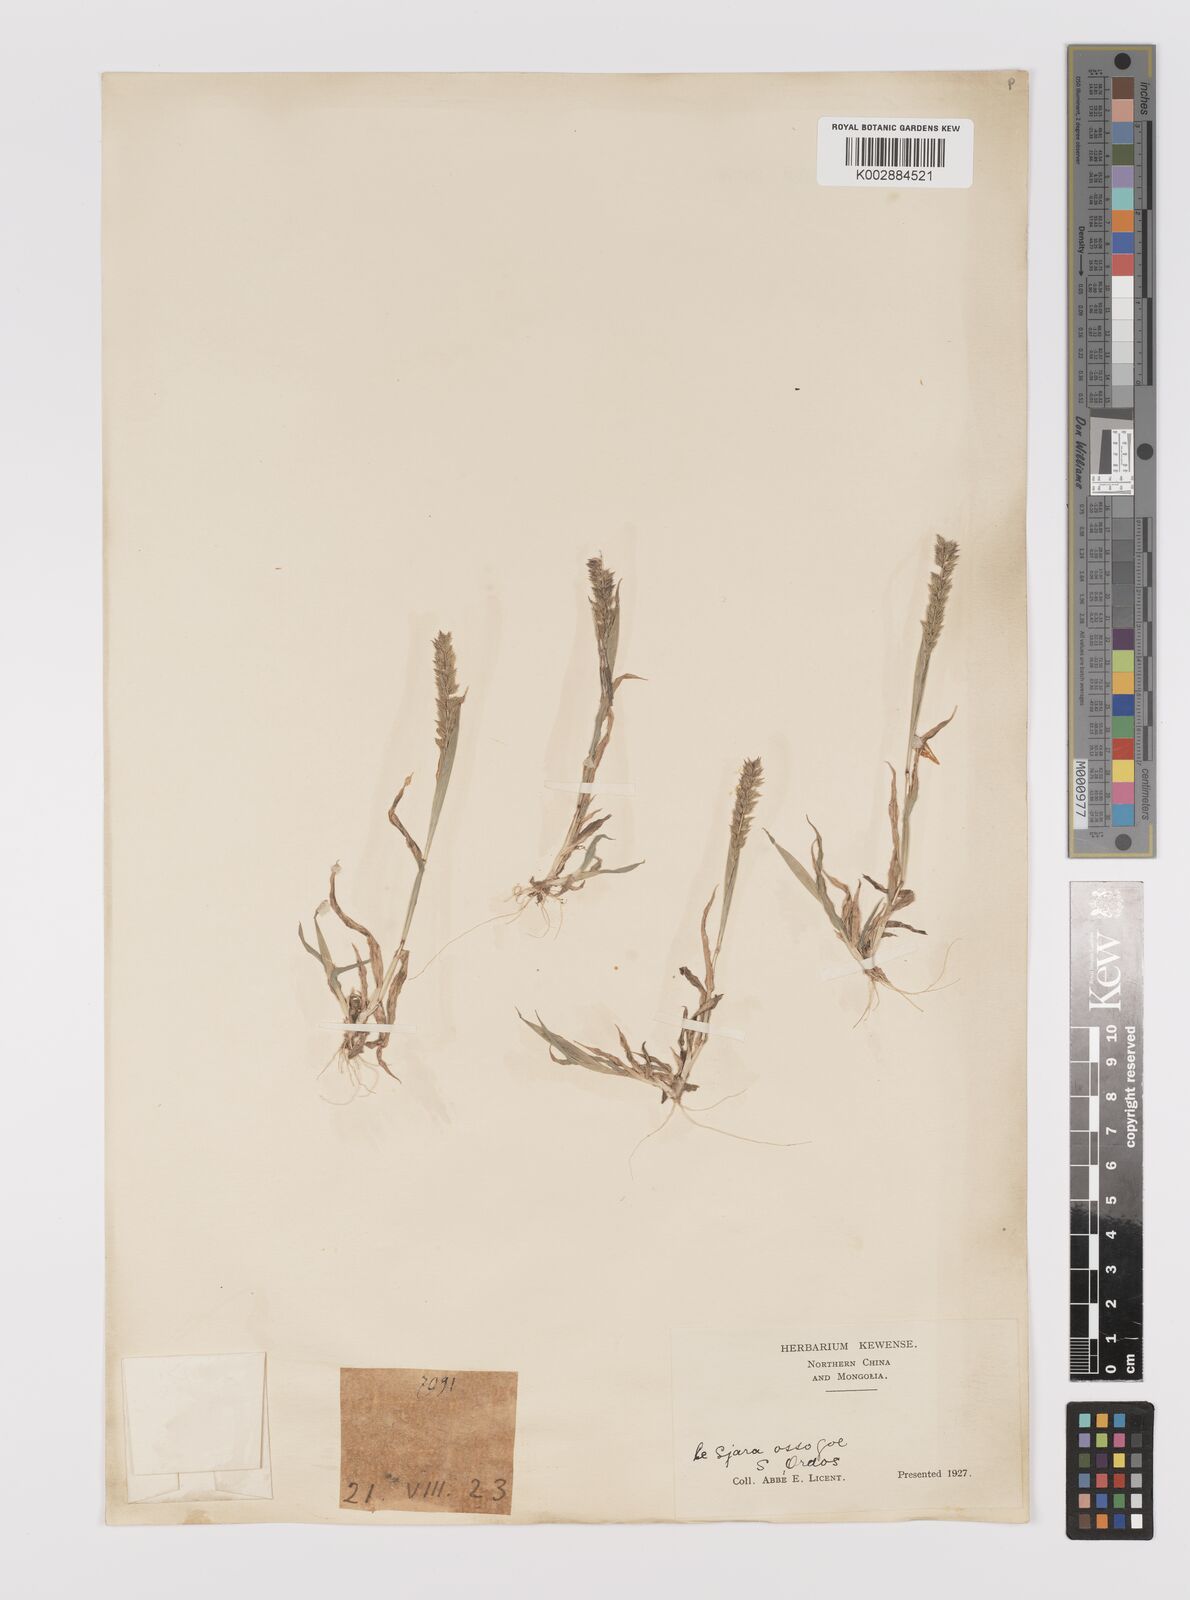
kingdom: Plantae
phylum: Tracheophyta
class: Liliopsida
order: Poales
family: Poaceae
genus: Tragus
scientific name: Tragus mongolorum
